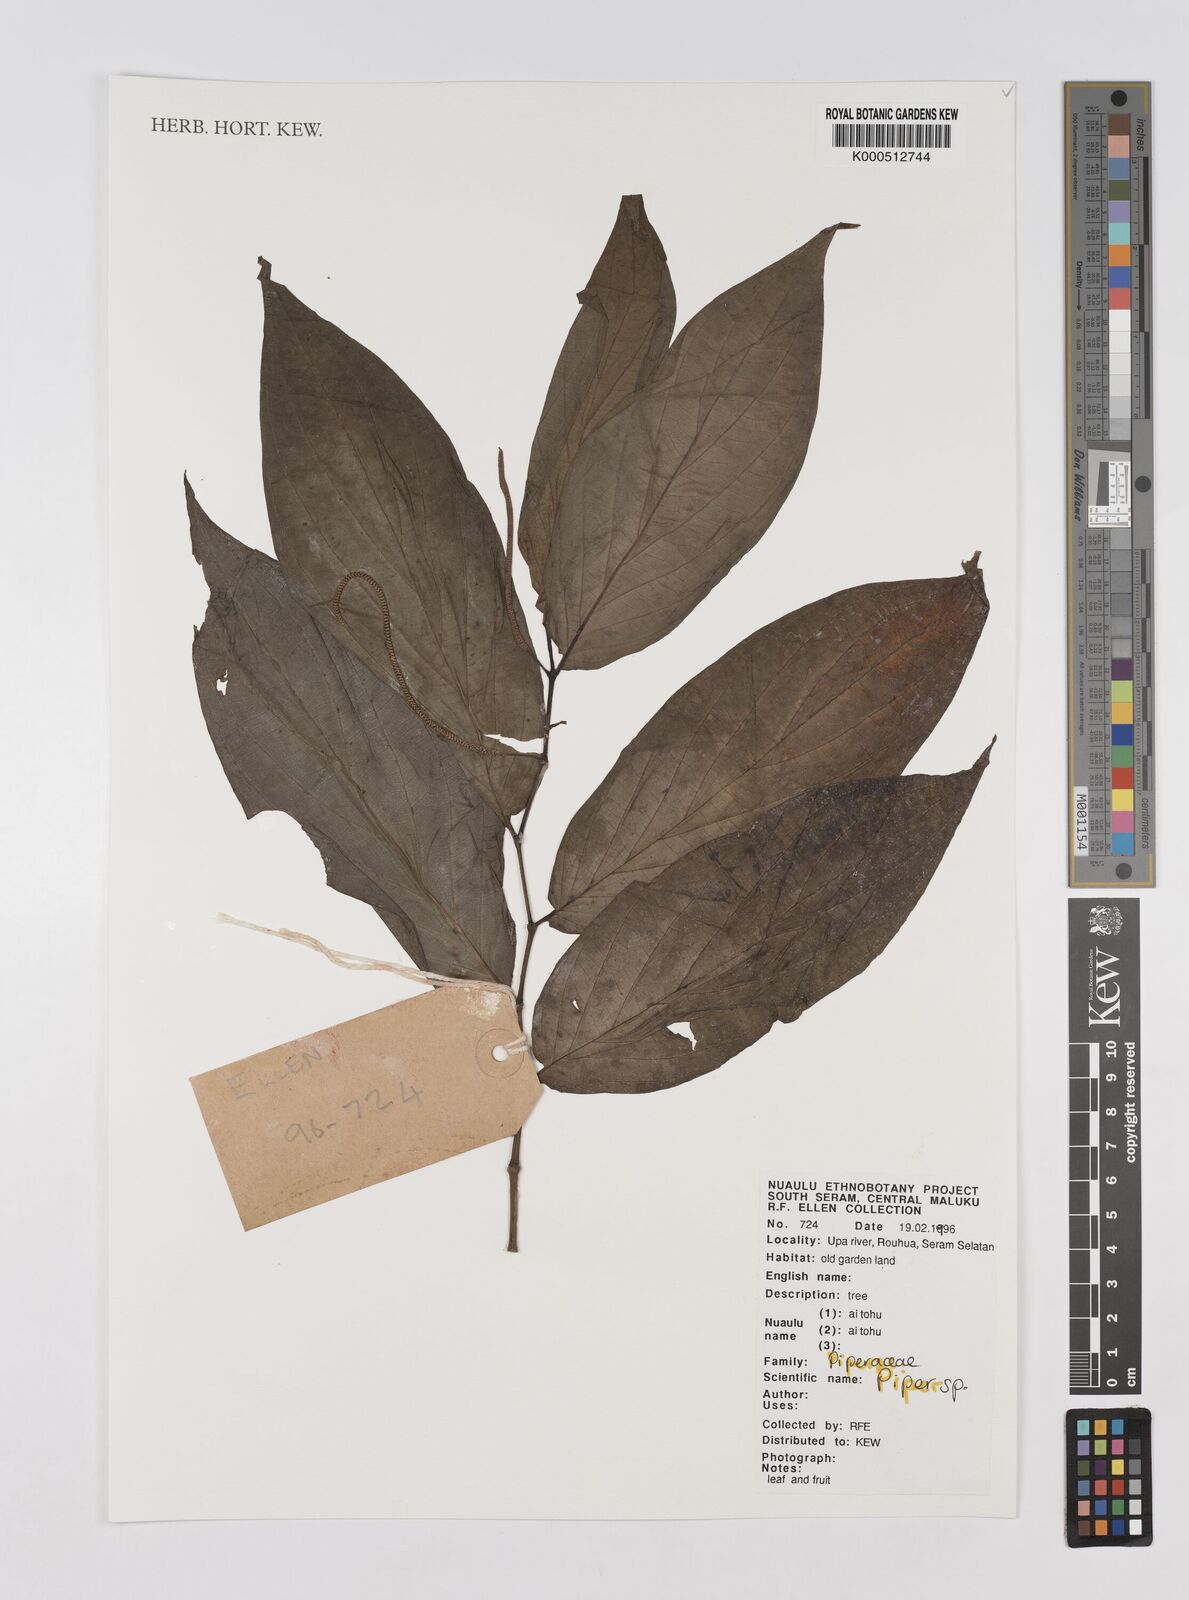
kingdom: Plantae
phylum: Tracheophyta
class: Magnoliopsida
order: Piperales
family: Piperaceae
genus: Piper
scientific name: Piper
